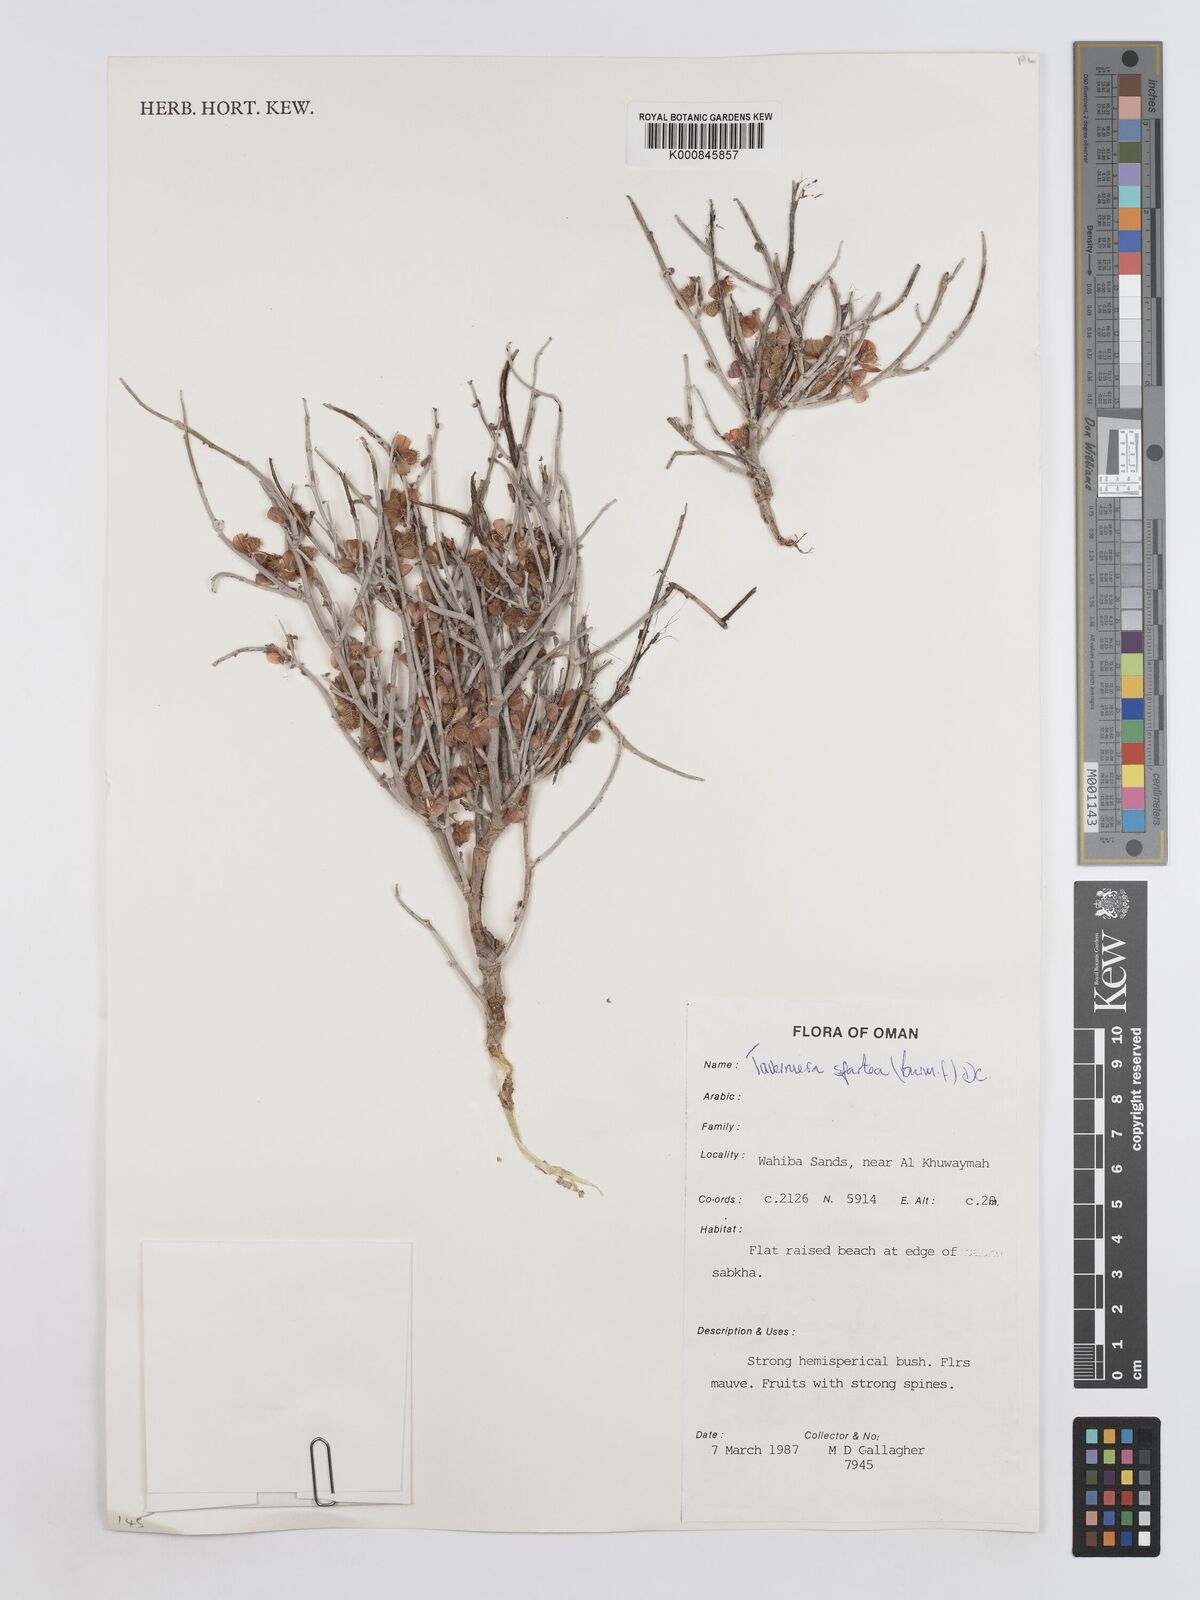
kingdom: Plantae
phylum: Tracheophyta
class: Magnoliopsida
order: Fabales
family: Fabaceae
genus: Taverniera
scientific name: Taverniera spartea
